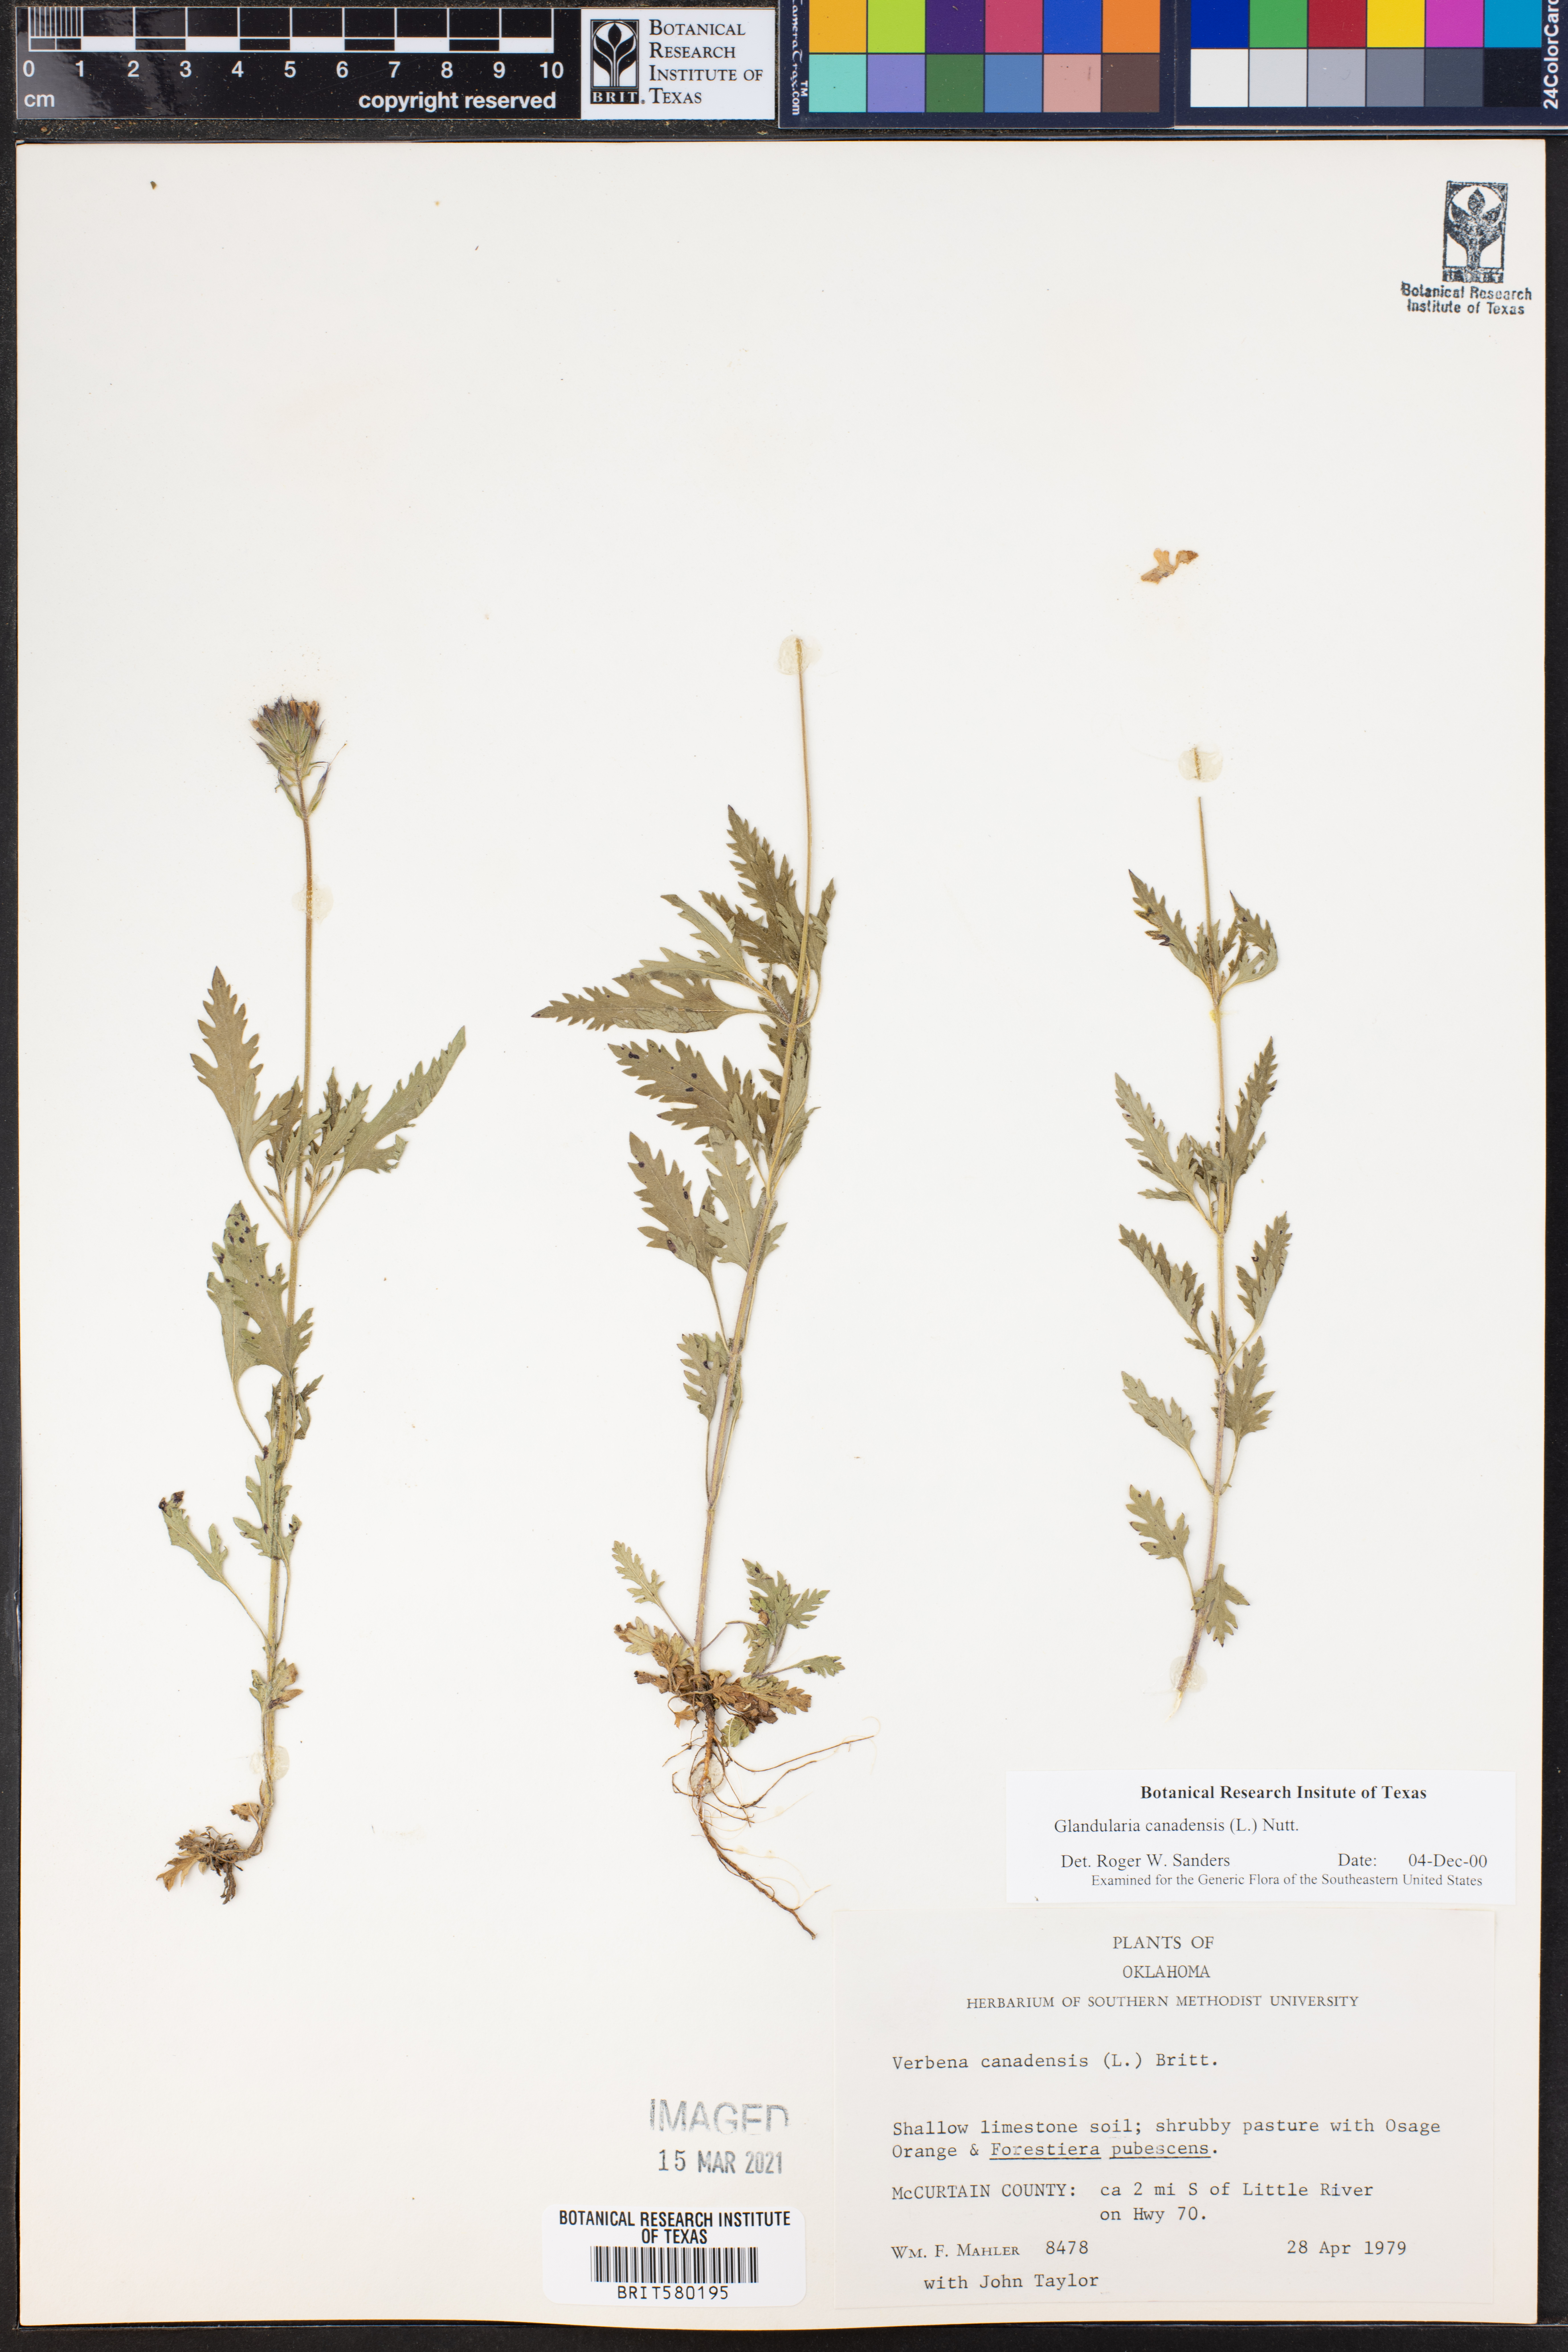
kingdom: Plantae
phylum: Tracheophyta
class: Magnoliopsida
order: Lamiales
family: Verbenaceae
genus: Verbena
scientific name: Verbena canadensis
